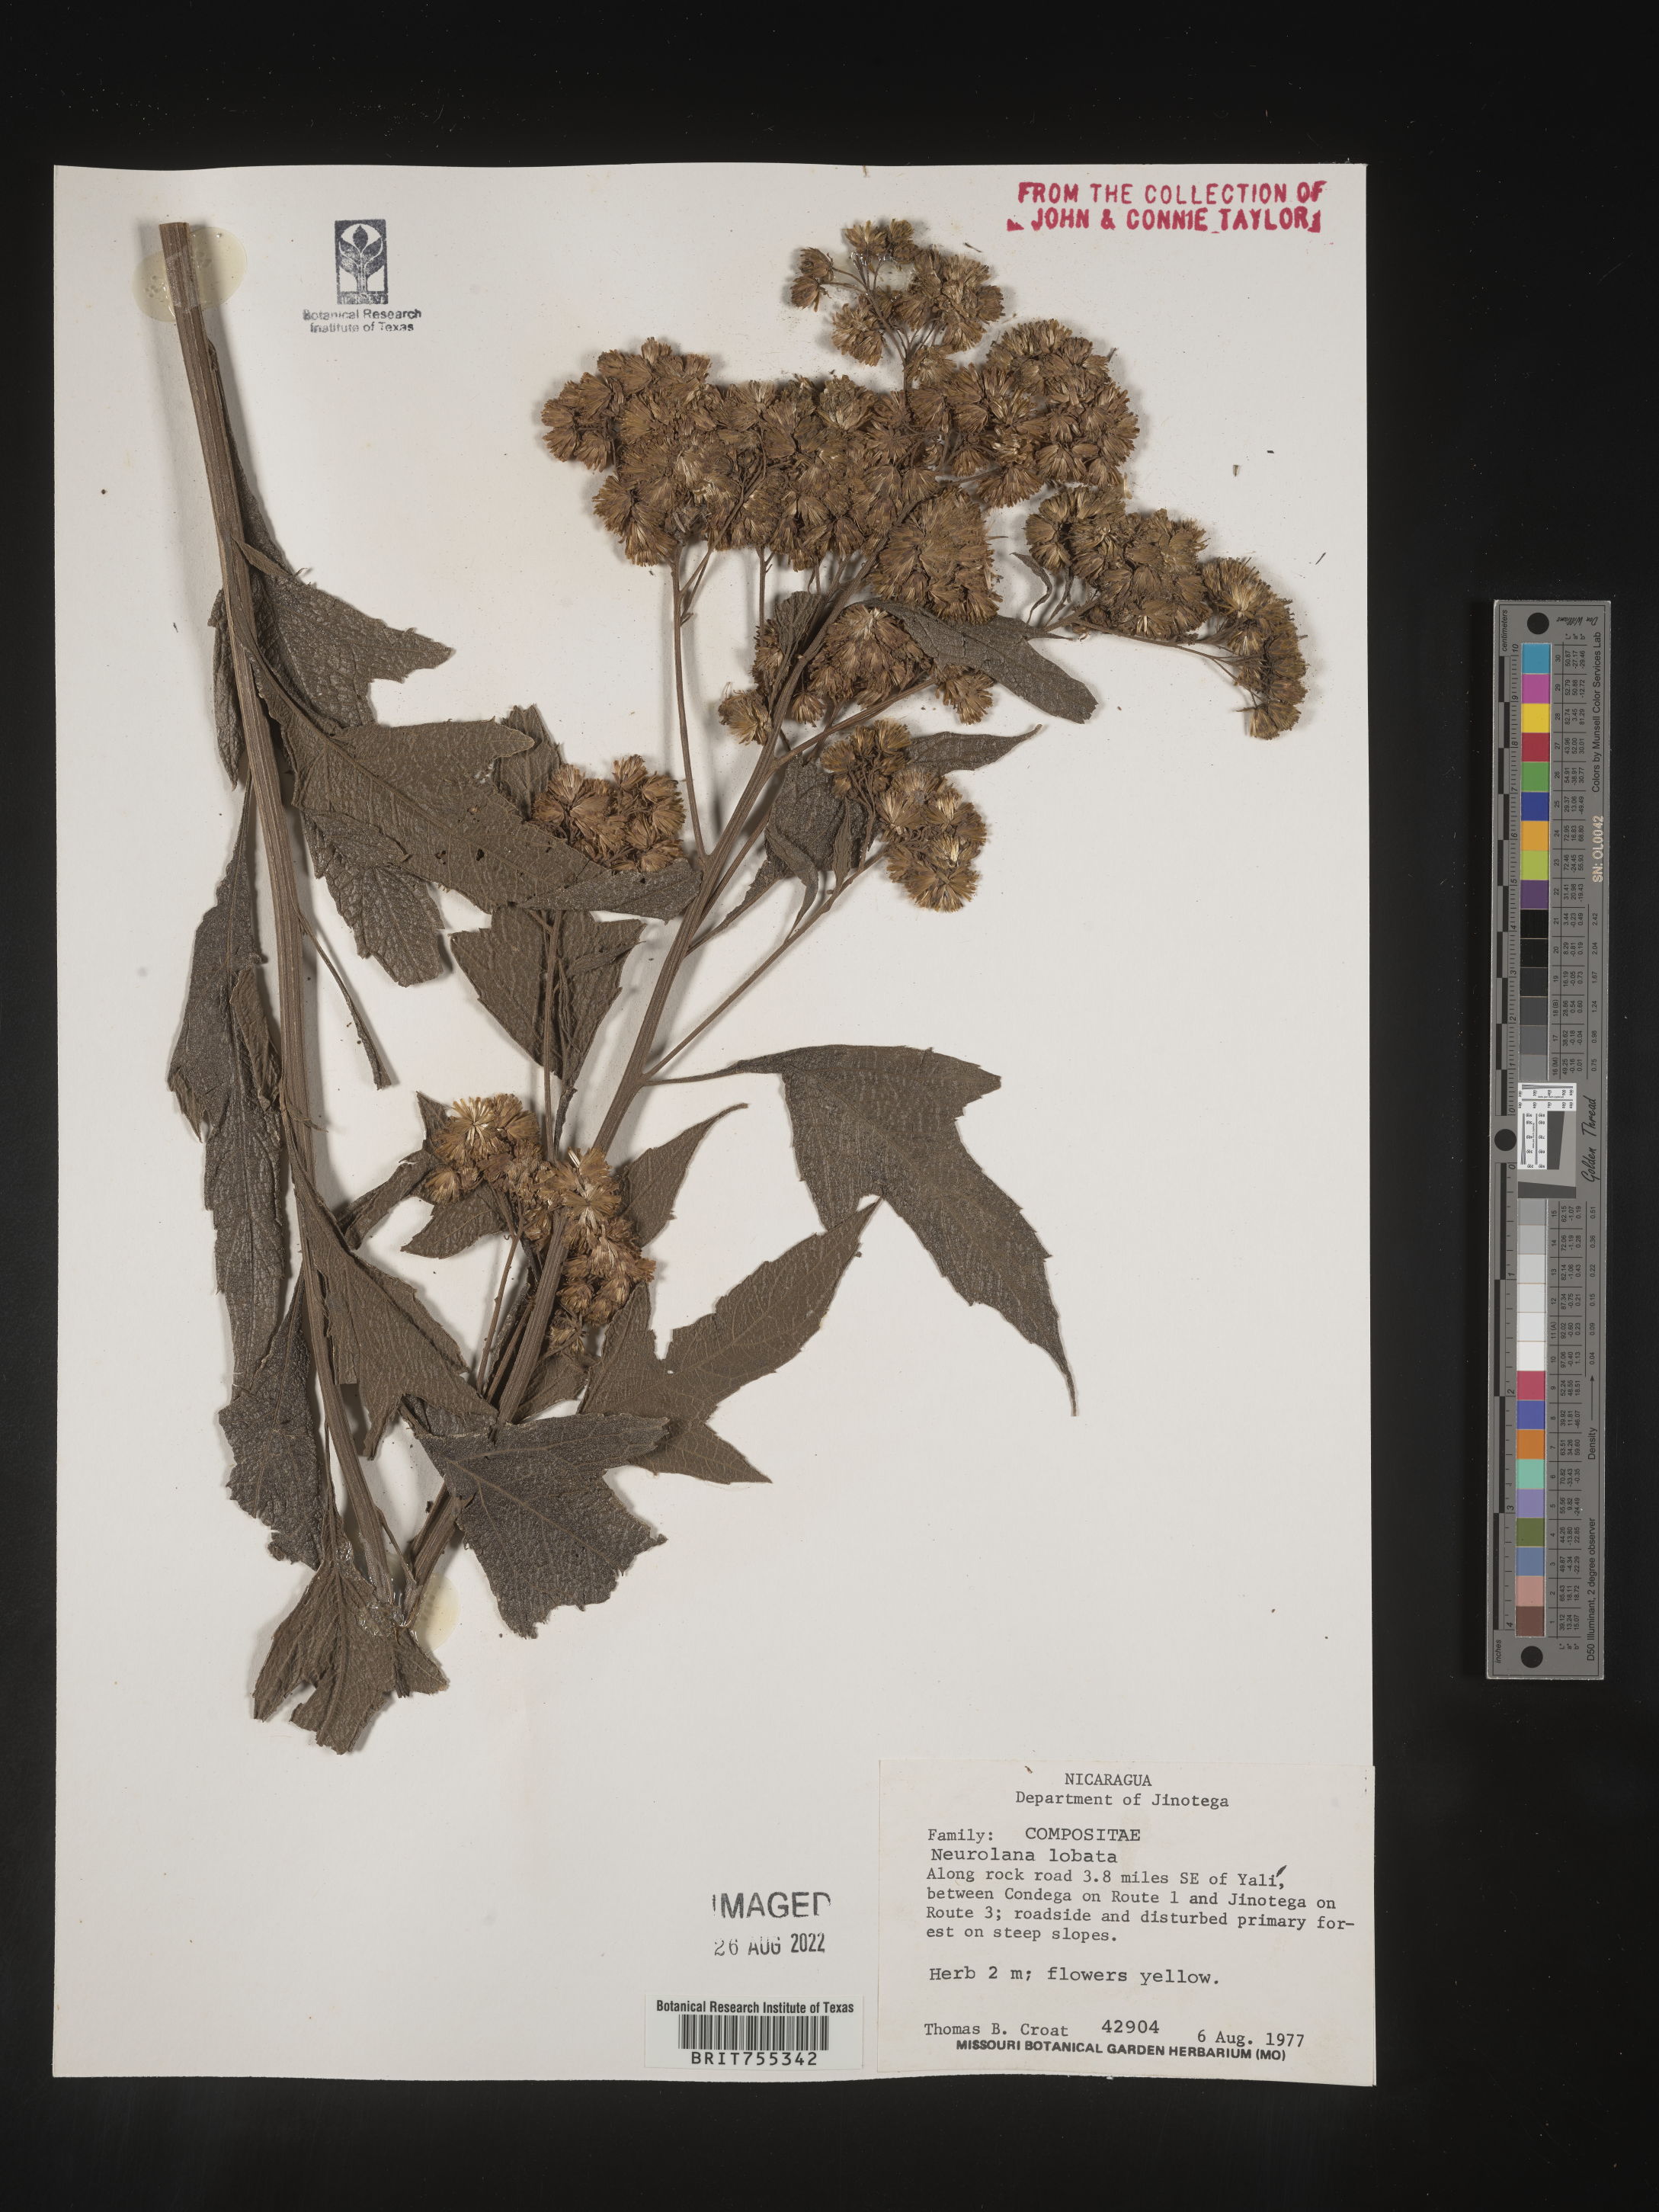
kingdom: Plantae
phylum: Tracheophyta
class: Magnoliopsida
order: Asterales
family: Asteraceae
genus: Neurolaena
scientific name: Neurolaena
